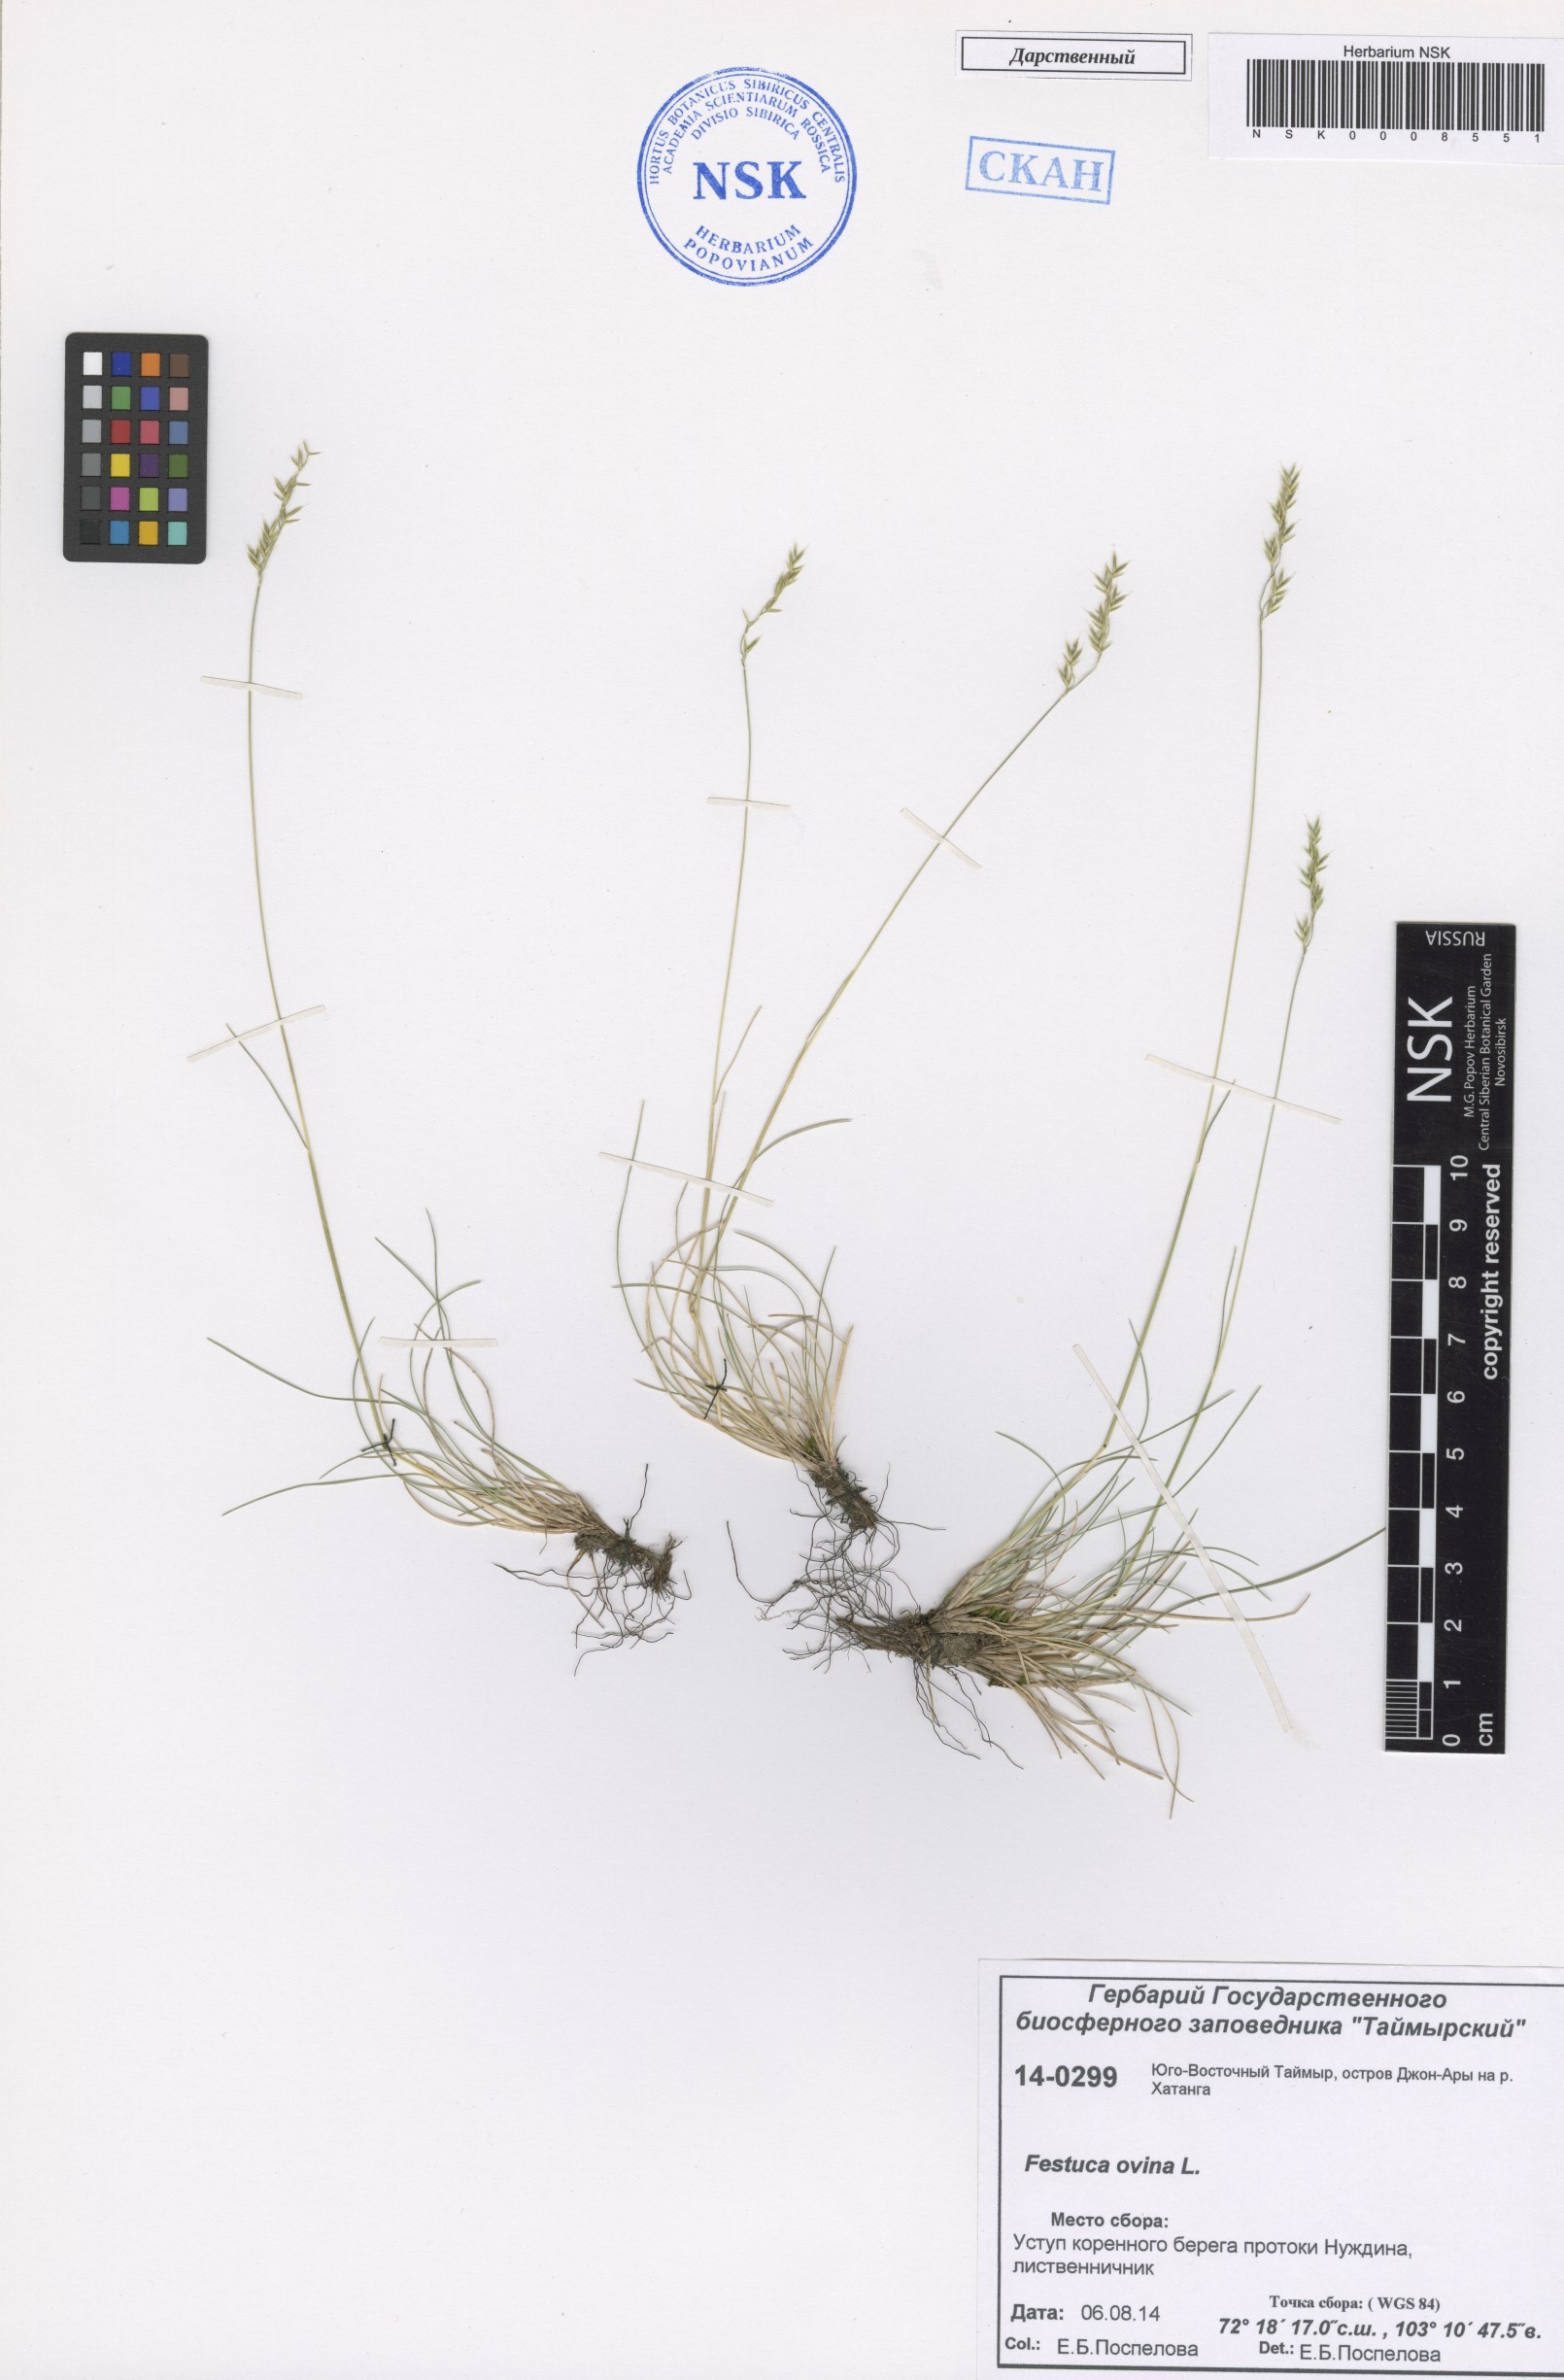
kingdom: Plantae
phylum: Tracheophyta
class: Liliopsida
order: Poales
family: Poaceae
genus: Festuca
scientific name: Festuca ovina
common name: Sheep fescue
